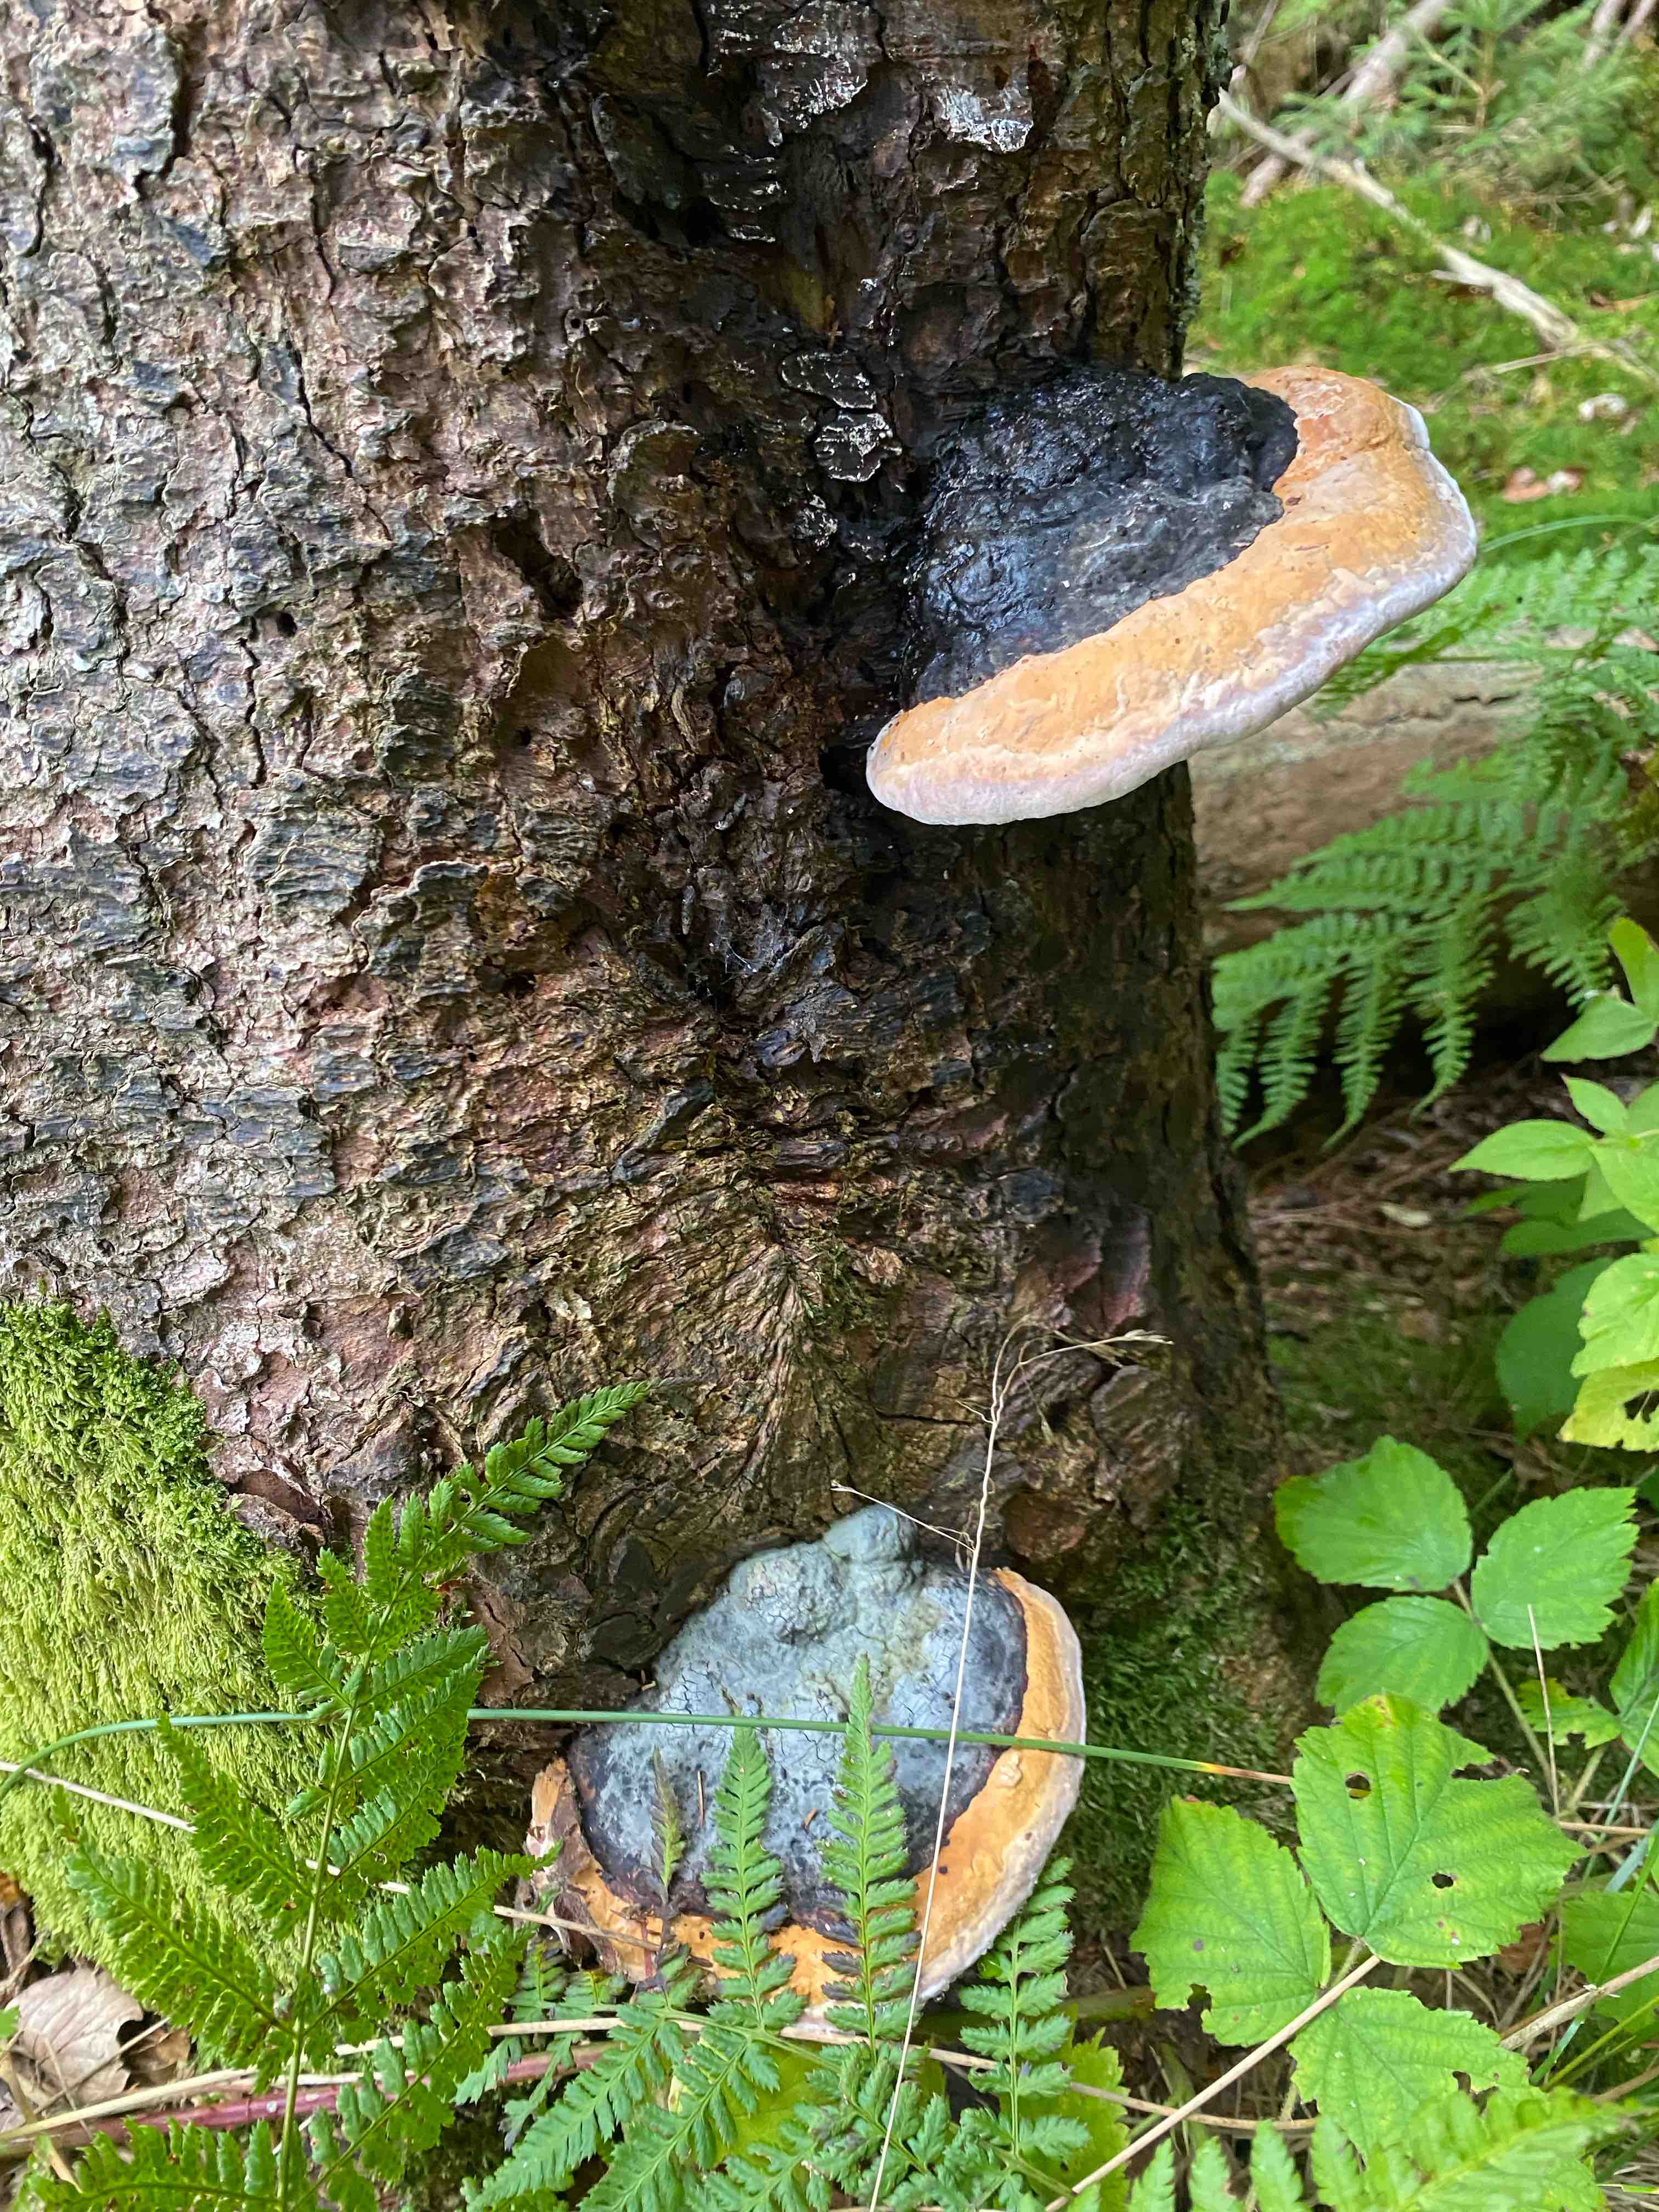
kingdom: Fungi
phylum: Basidiomycota
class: Agaricomycetes
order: Polyporales
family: Fomitopsidaceae
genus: Fomitopsis
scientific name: Fomitopsis pinicola
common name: randbæltet hovporesvamp
